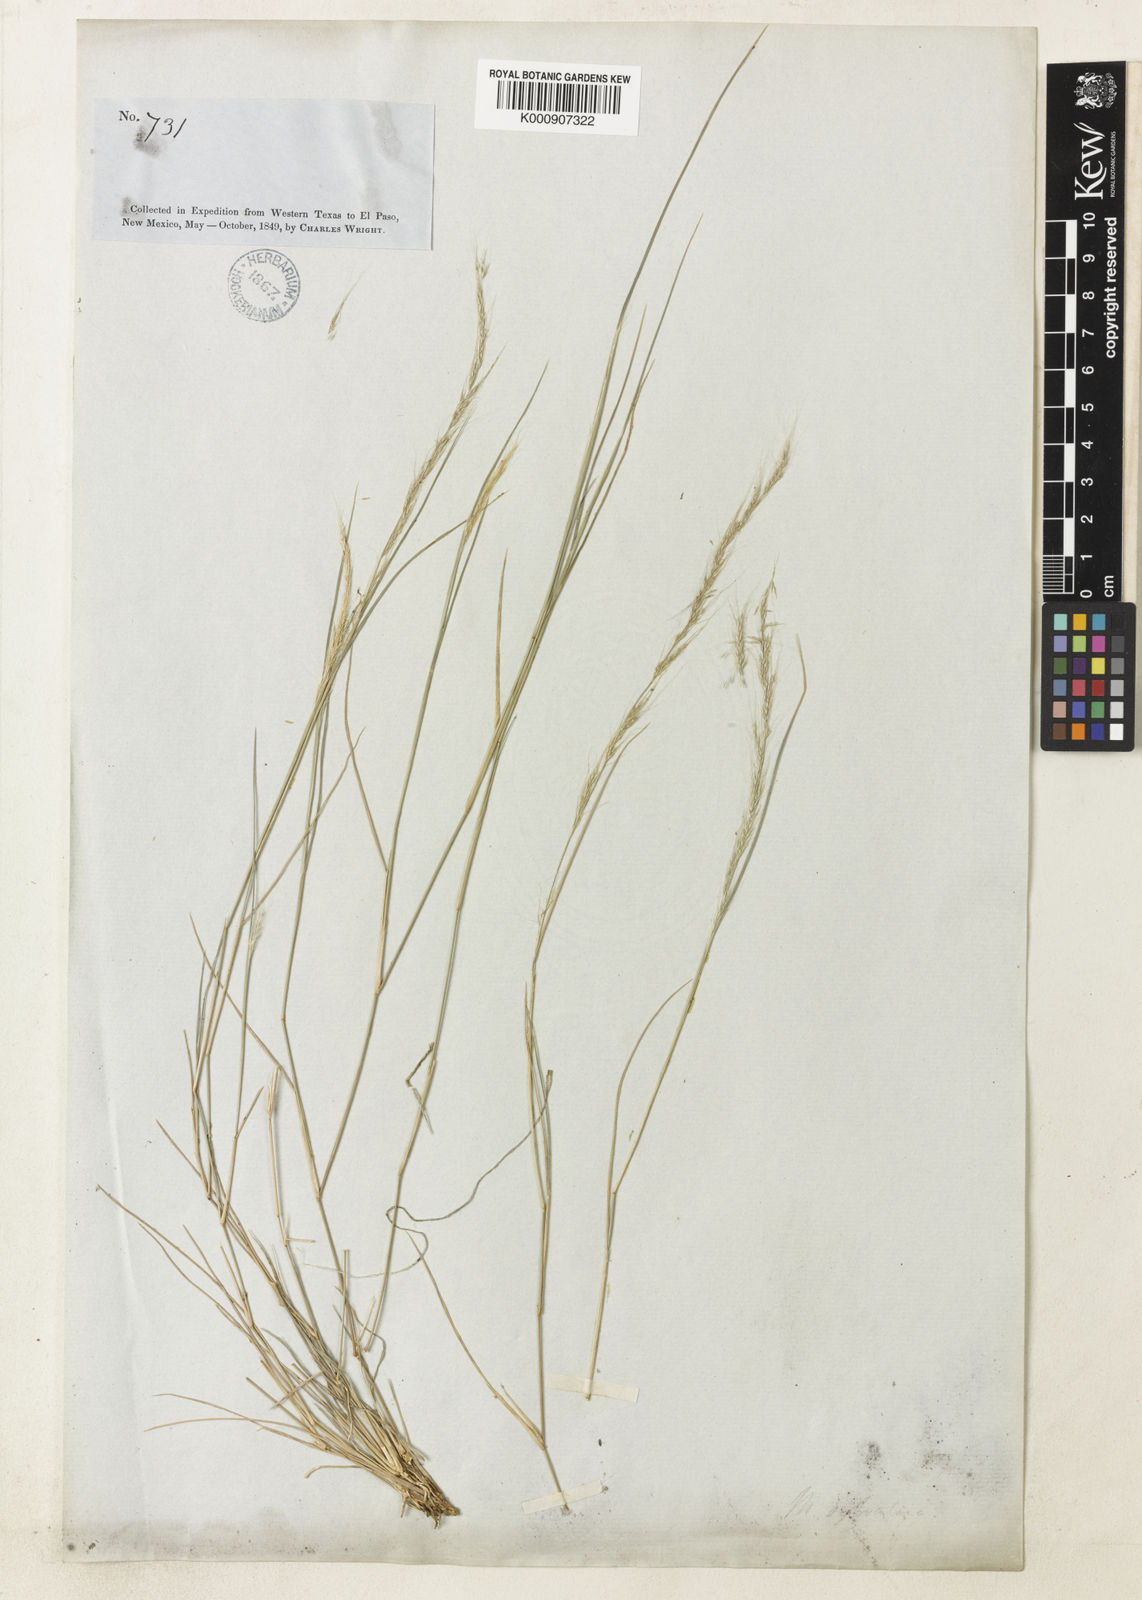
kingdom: Plantae
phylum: Tracheophyta
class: Liliopsida
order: Poales
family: Poaceae
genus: Muhlenbergia
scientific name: Muhlenbergia tenuifolia
